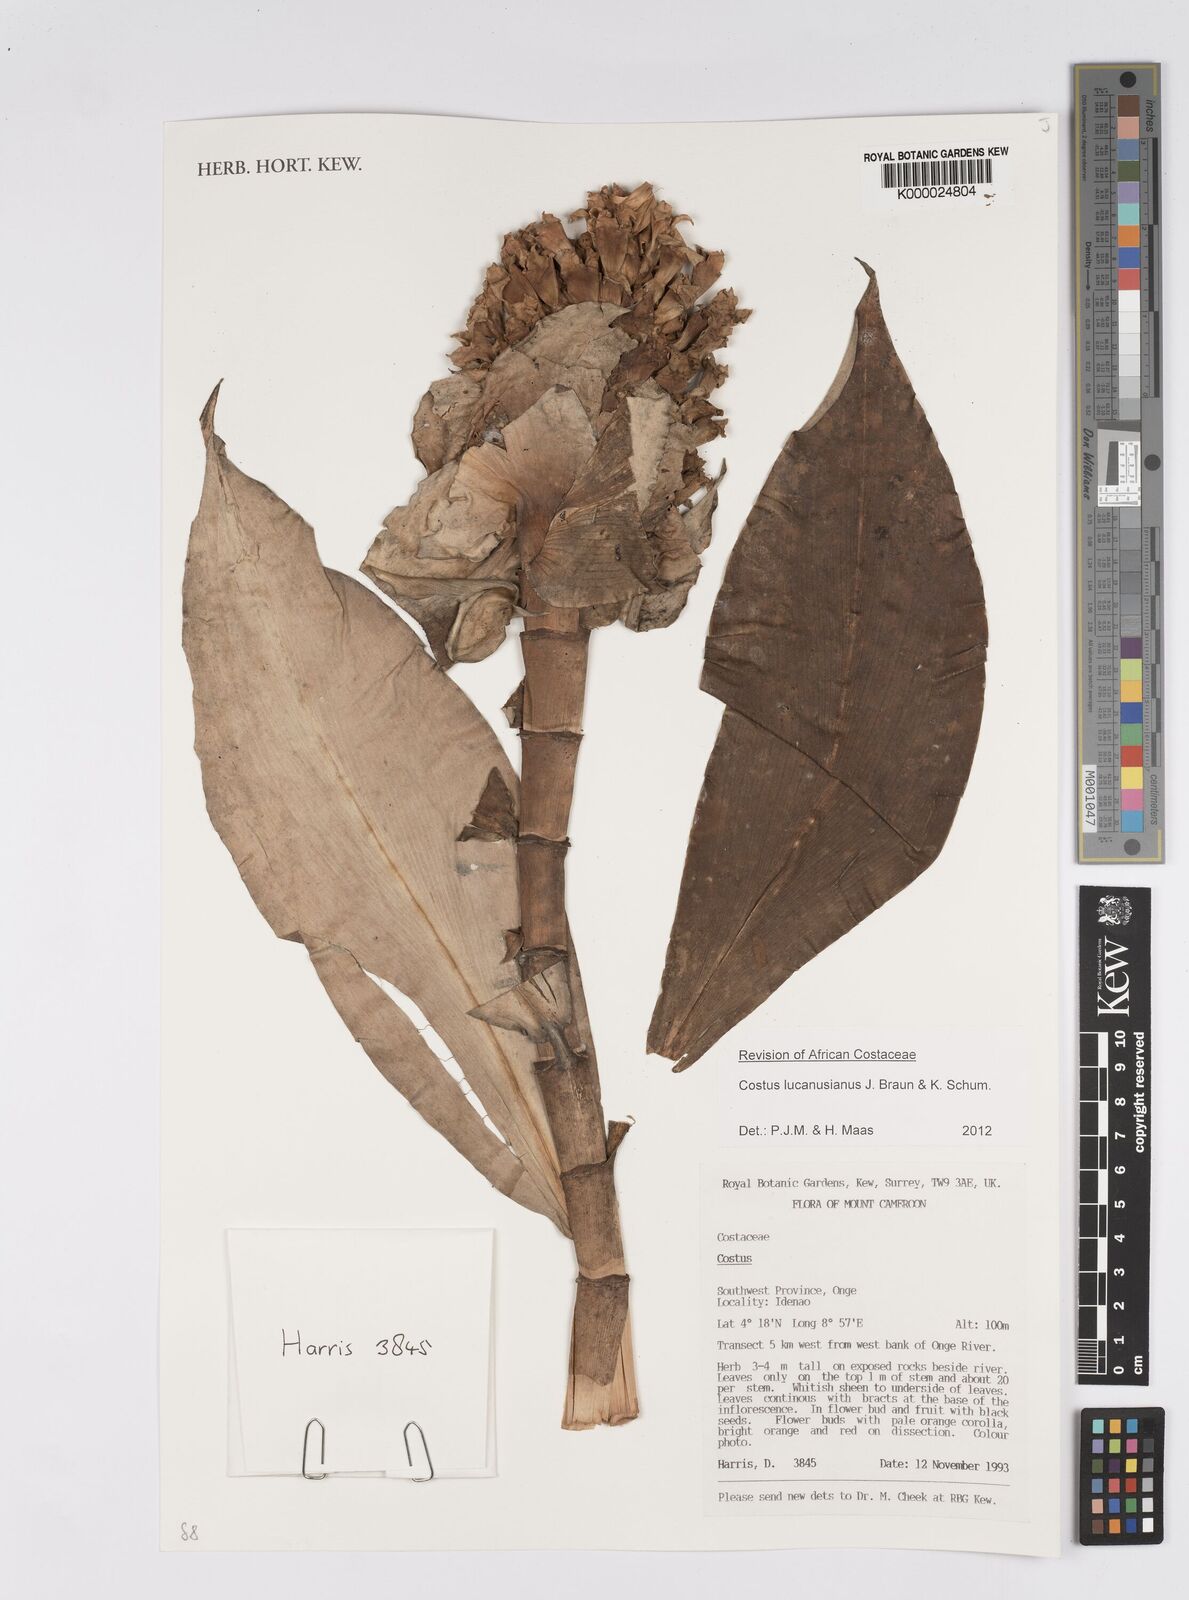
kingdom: Plantae
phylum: Tracheophyta
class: Liliopsida
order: Zingiberales
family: Costaceae
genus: Costus
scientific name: Costus lucanusianus
